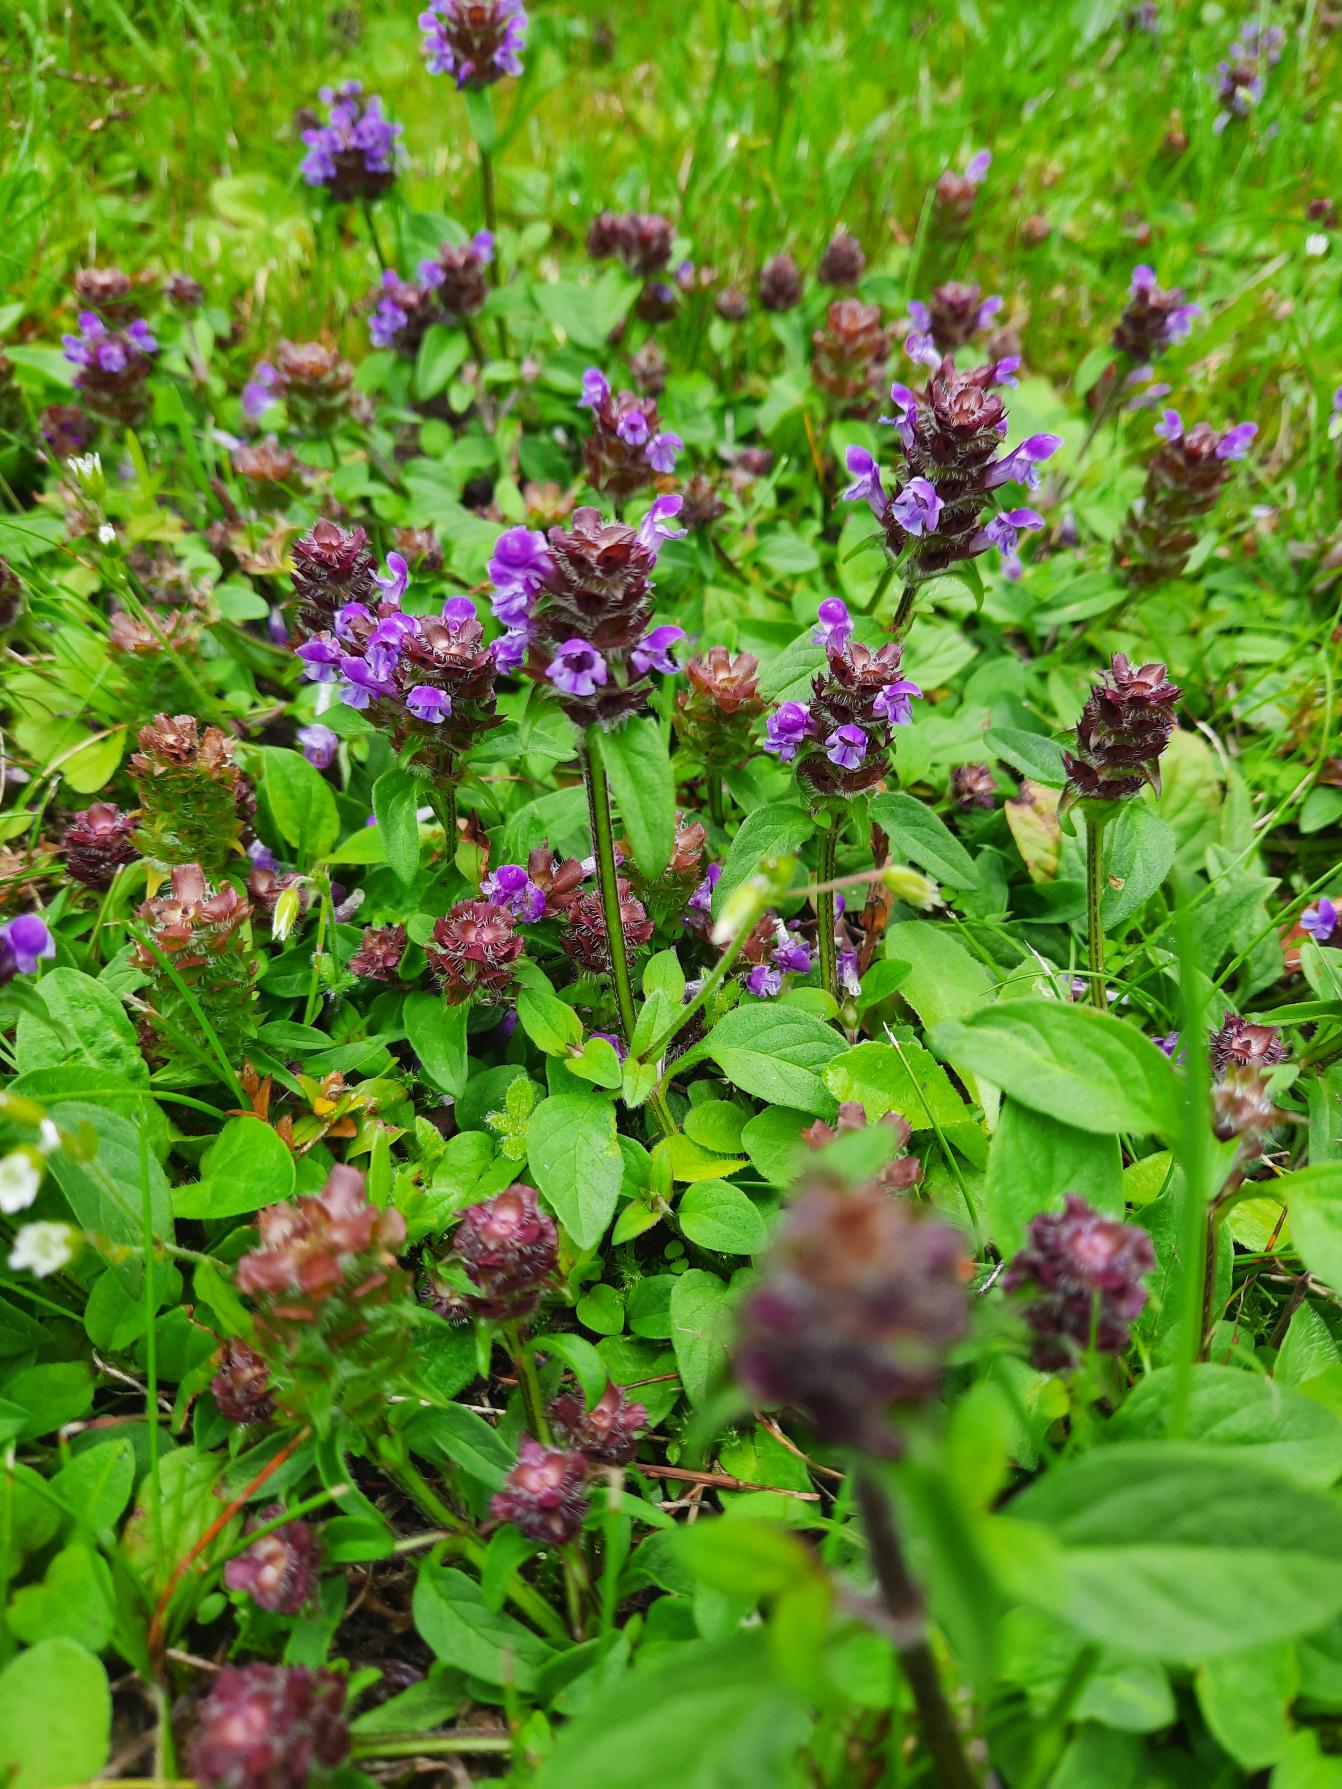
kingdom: Plantae
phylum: Tracheophyta
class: Magnoliopsida
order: Lamiales
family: Lamiaceae
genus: Prunella
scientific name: Prunella vulgaris
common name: Almindelig brunelle
